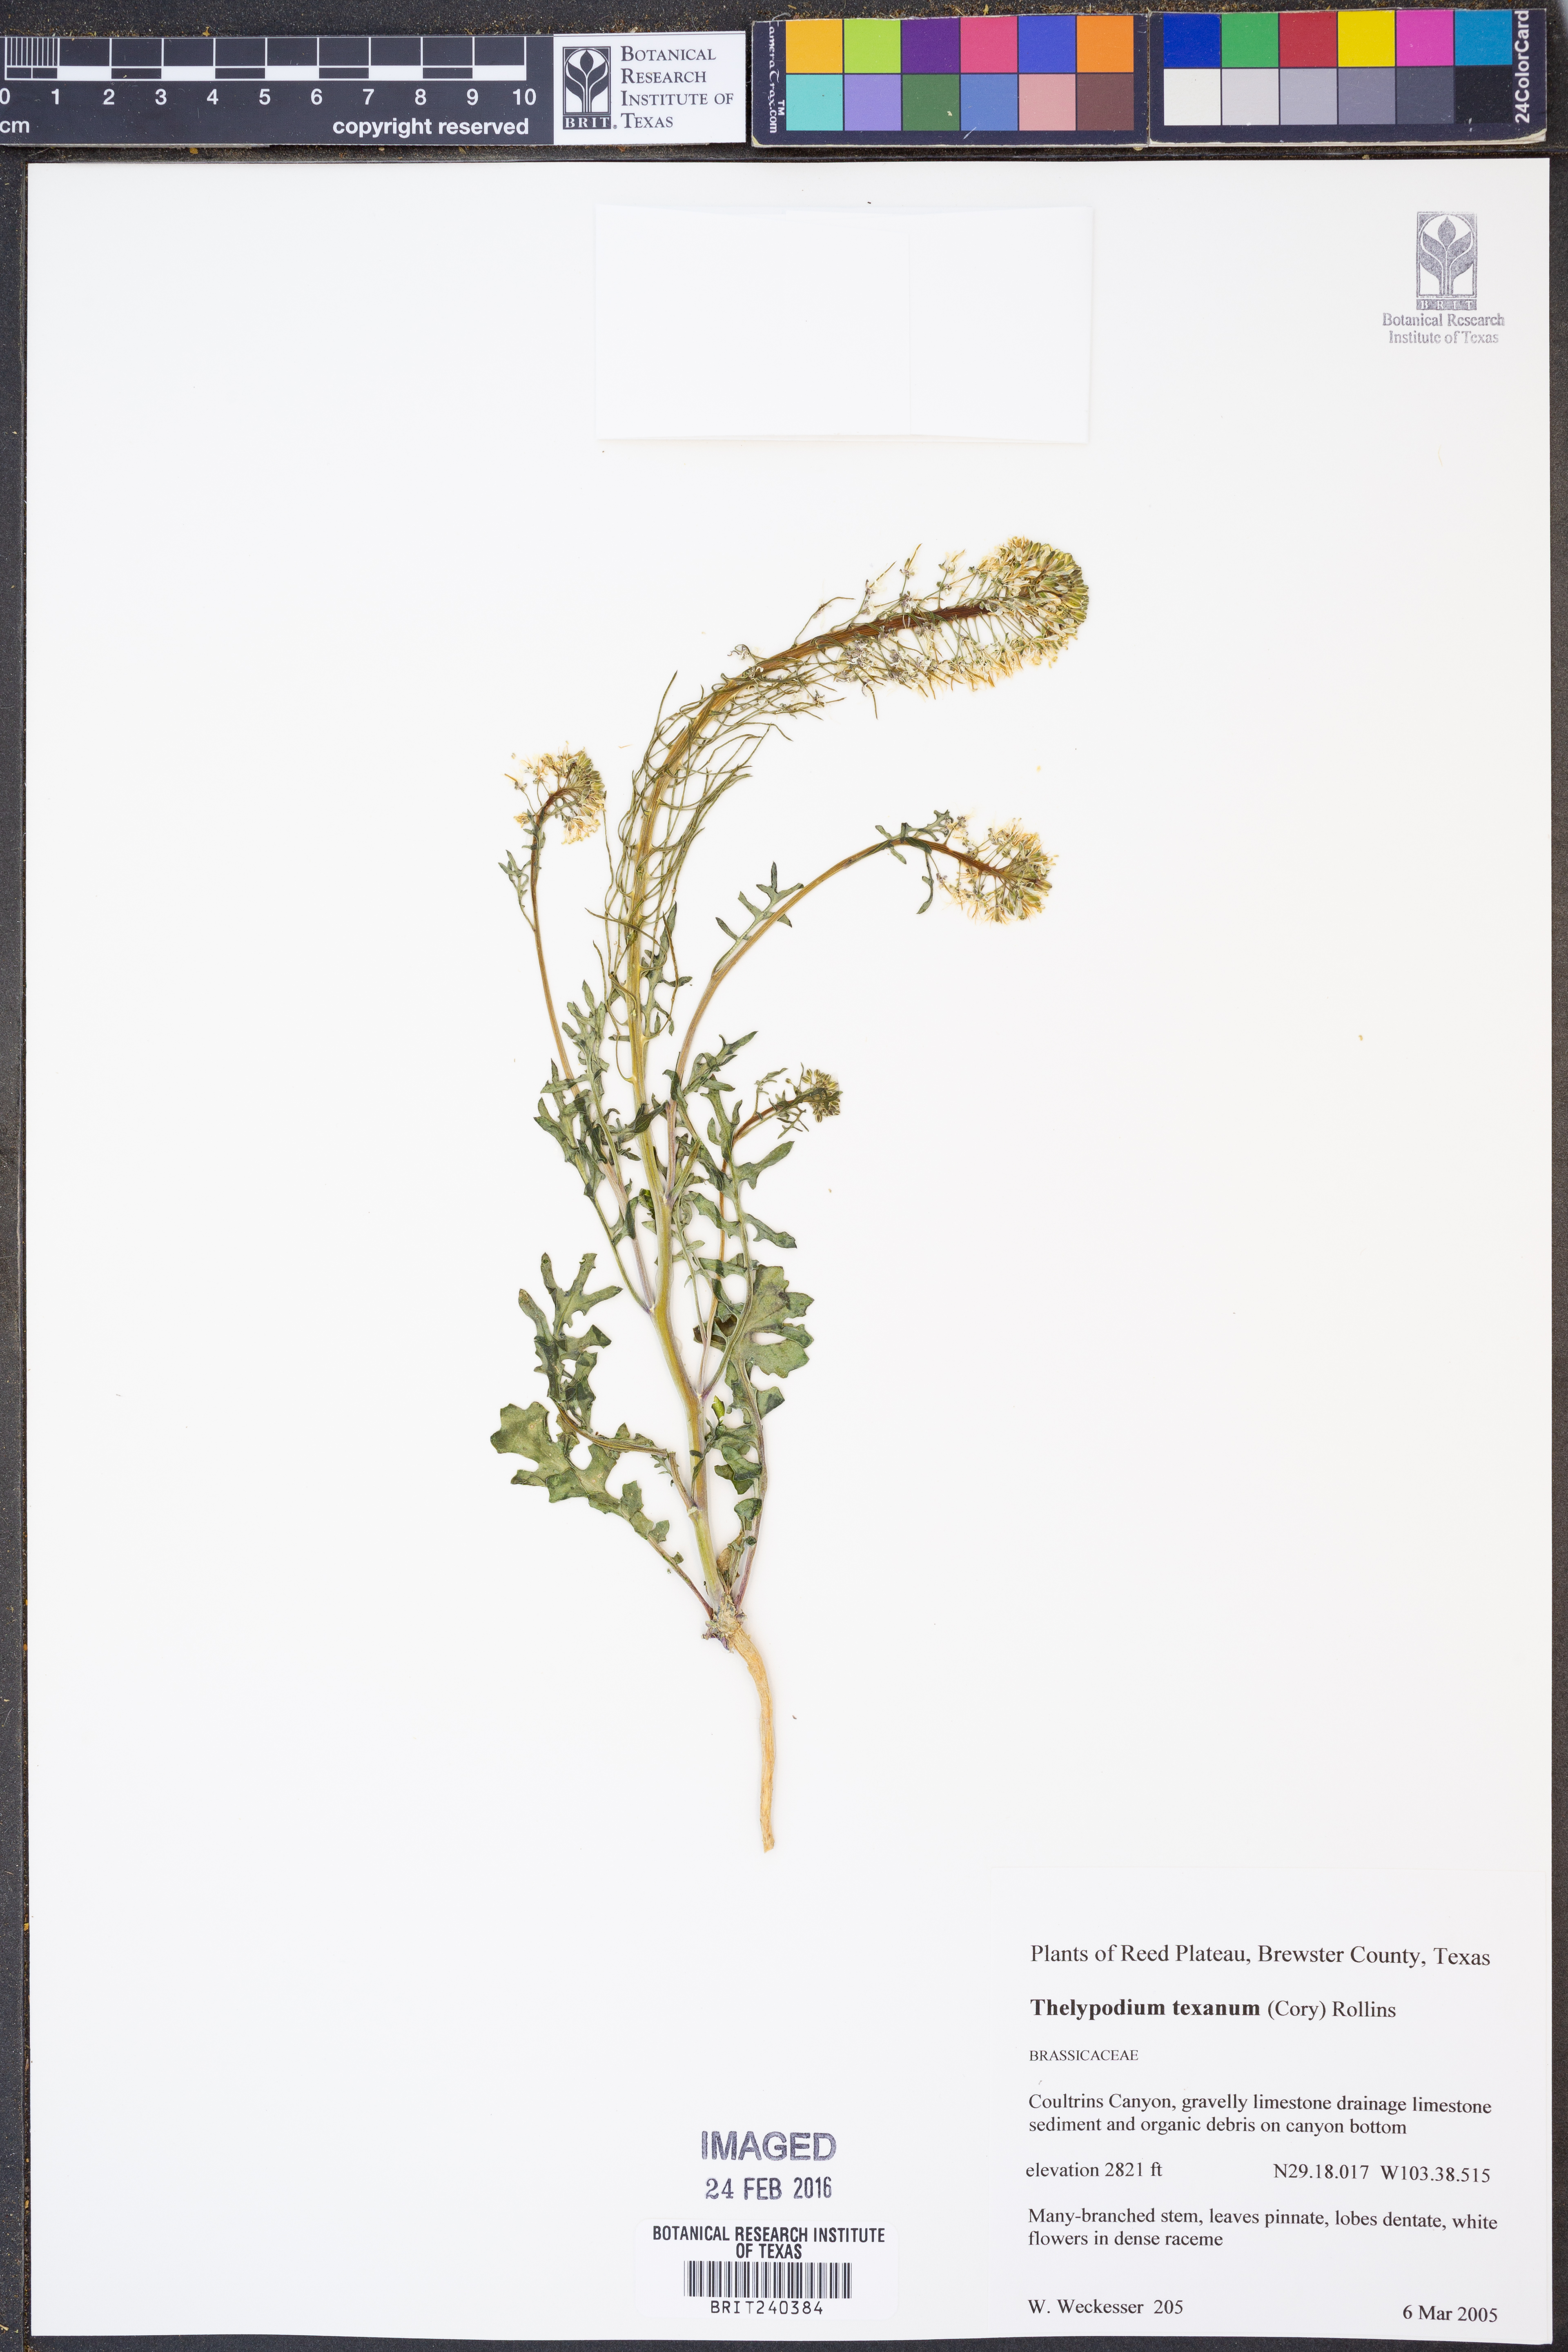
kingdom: Plantae
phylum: Tracheophyta
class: Magnoliopsida
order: Brassicales
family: Brassicaceae
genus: Thelypodium
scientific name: Thelypodium texanum
